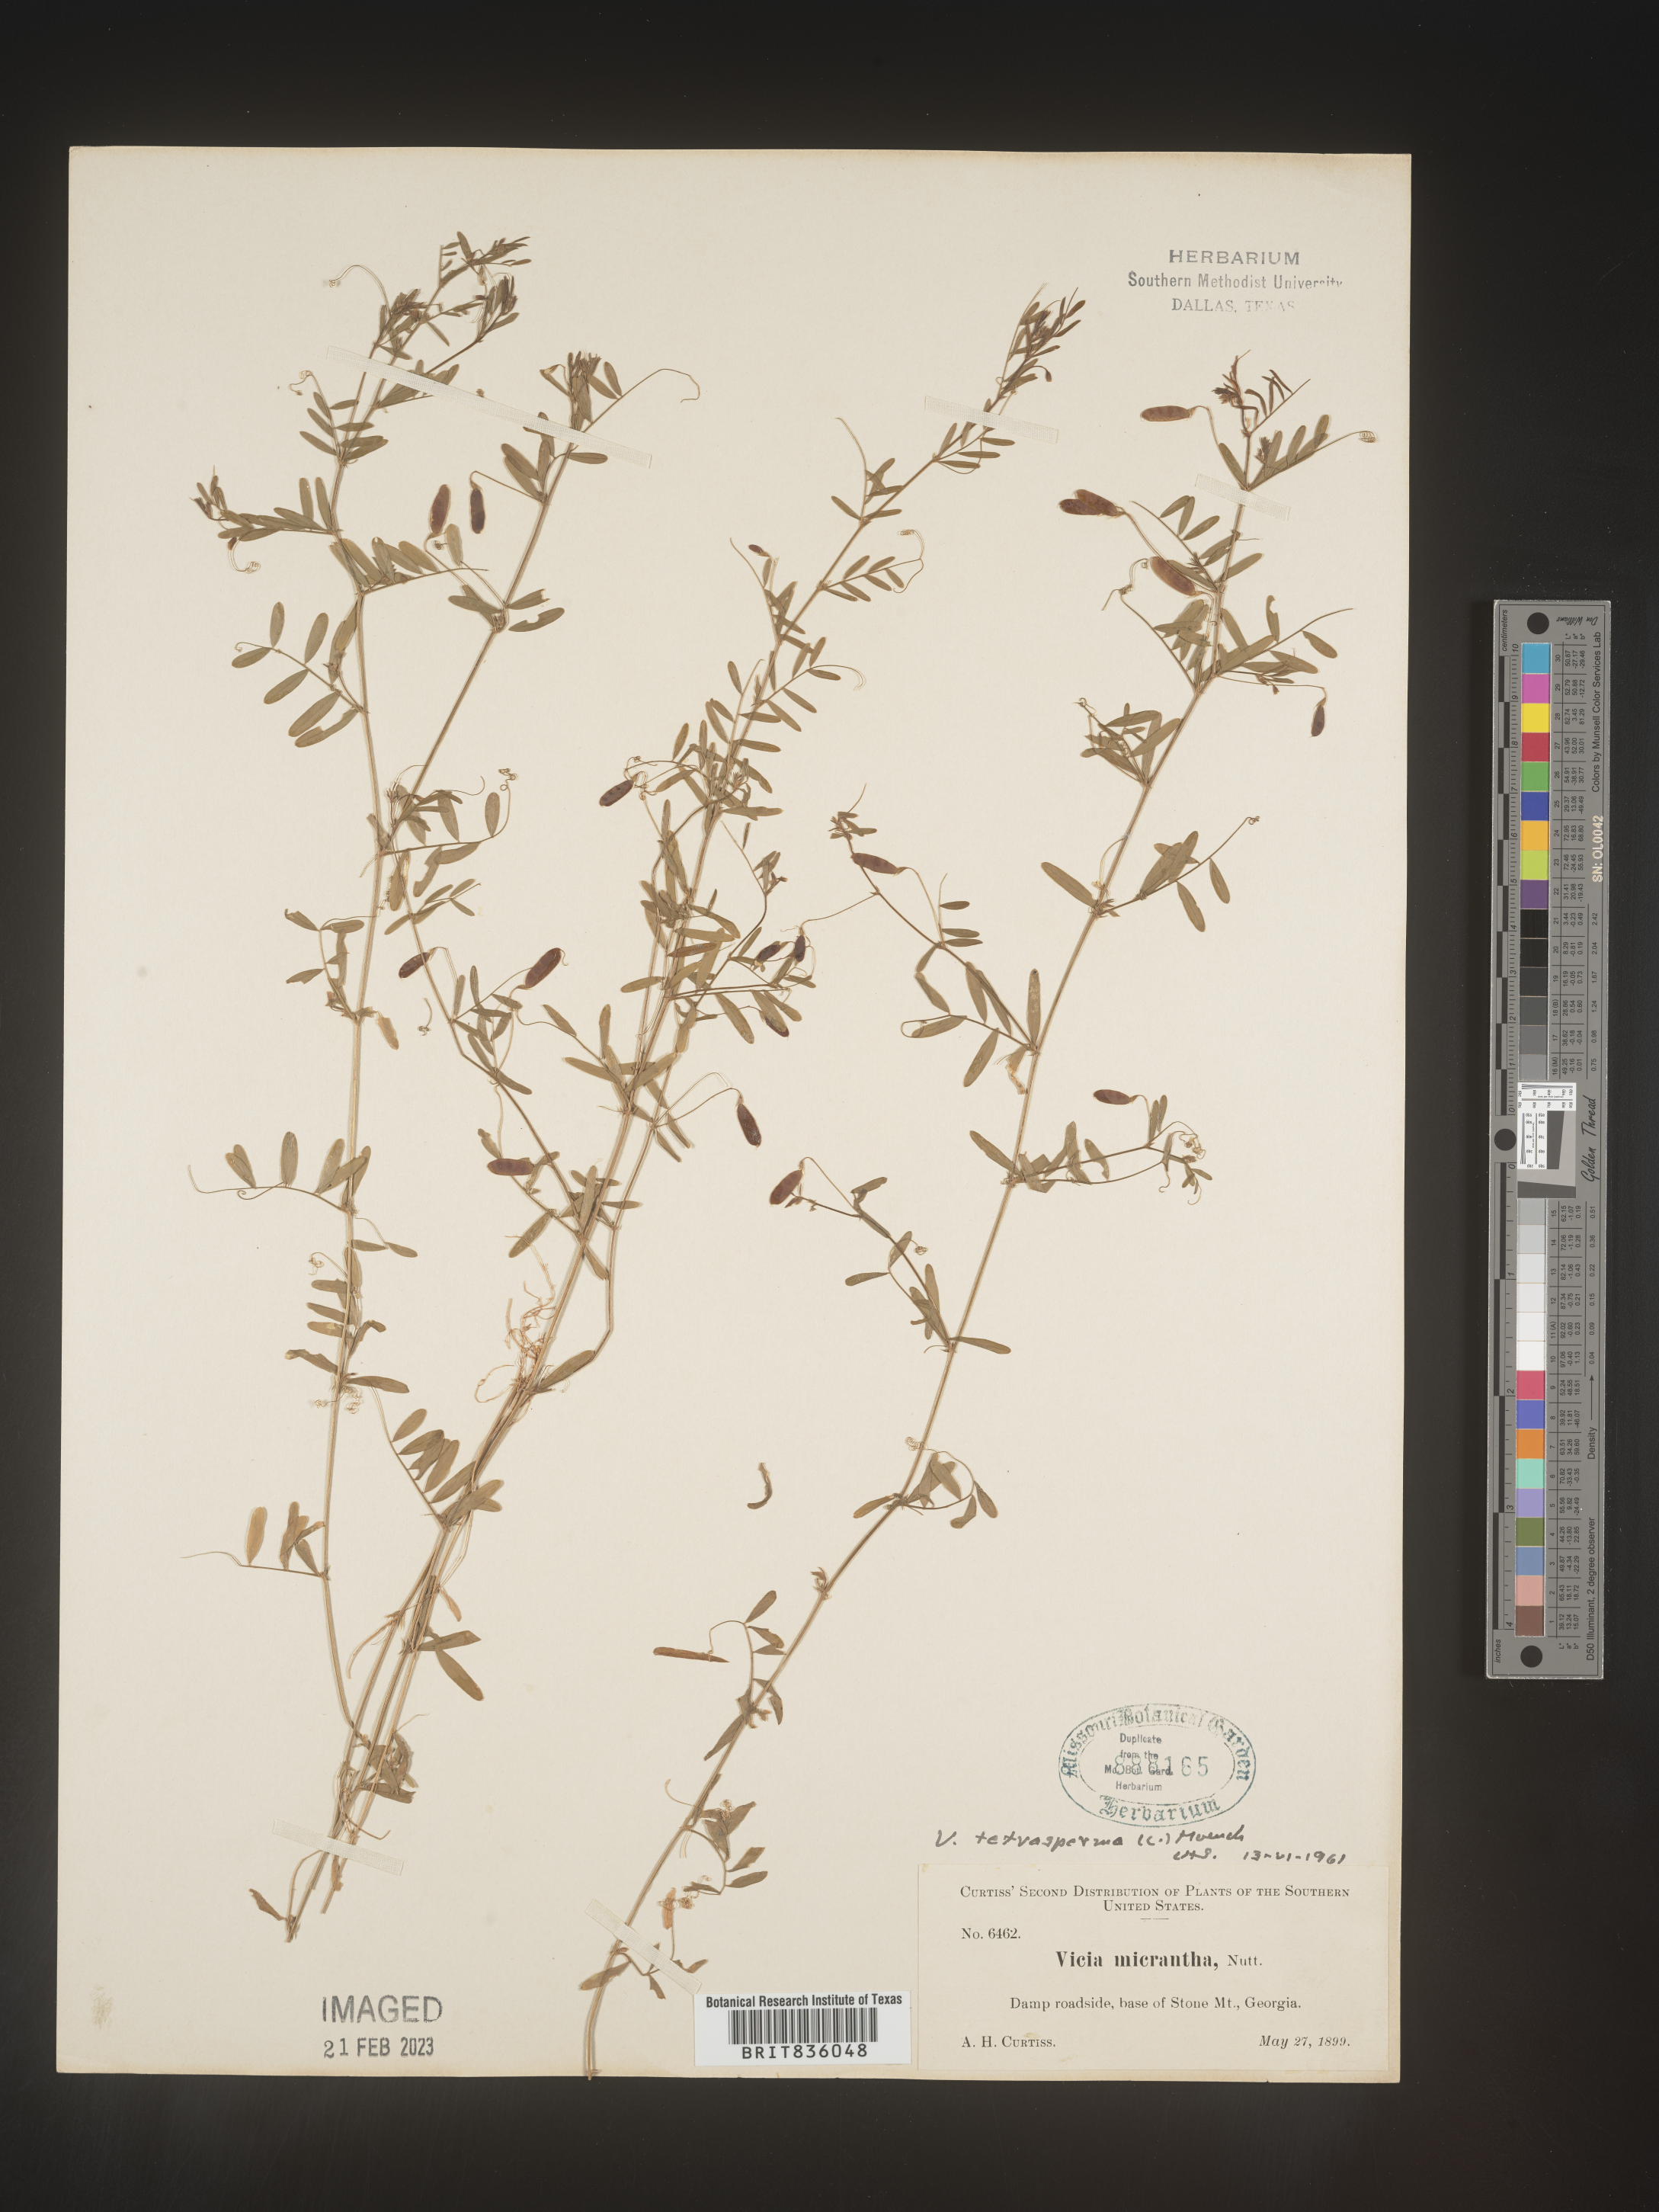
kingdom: Plantae
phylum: Tracheophyta
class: Magnoliopsida
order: Fabales
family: Fabaceae
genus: Vicia
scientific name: Vicia tetrasperma
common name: Smooth tare
